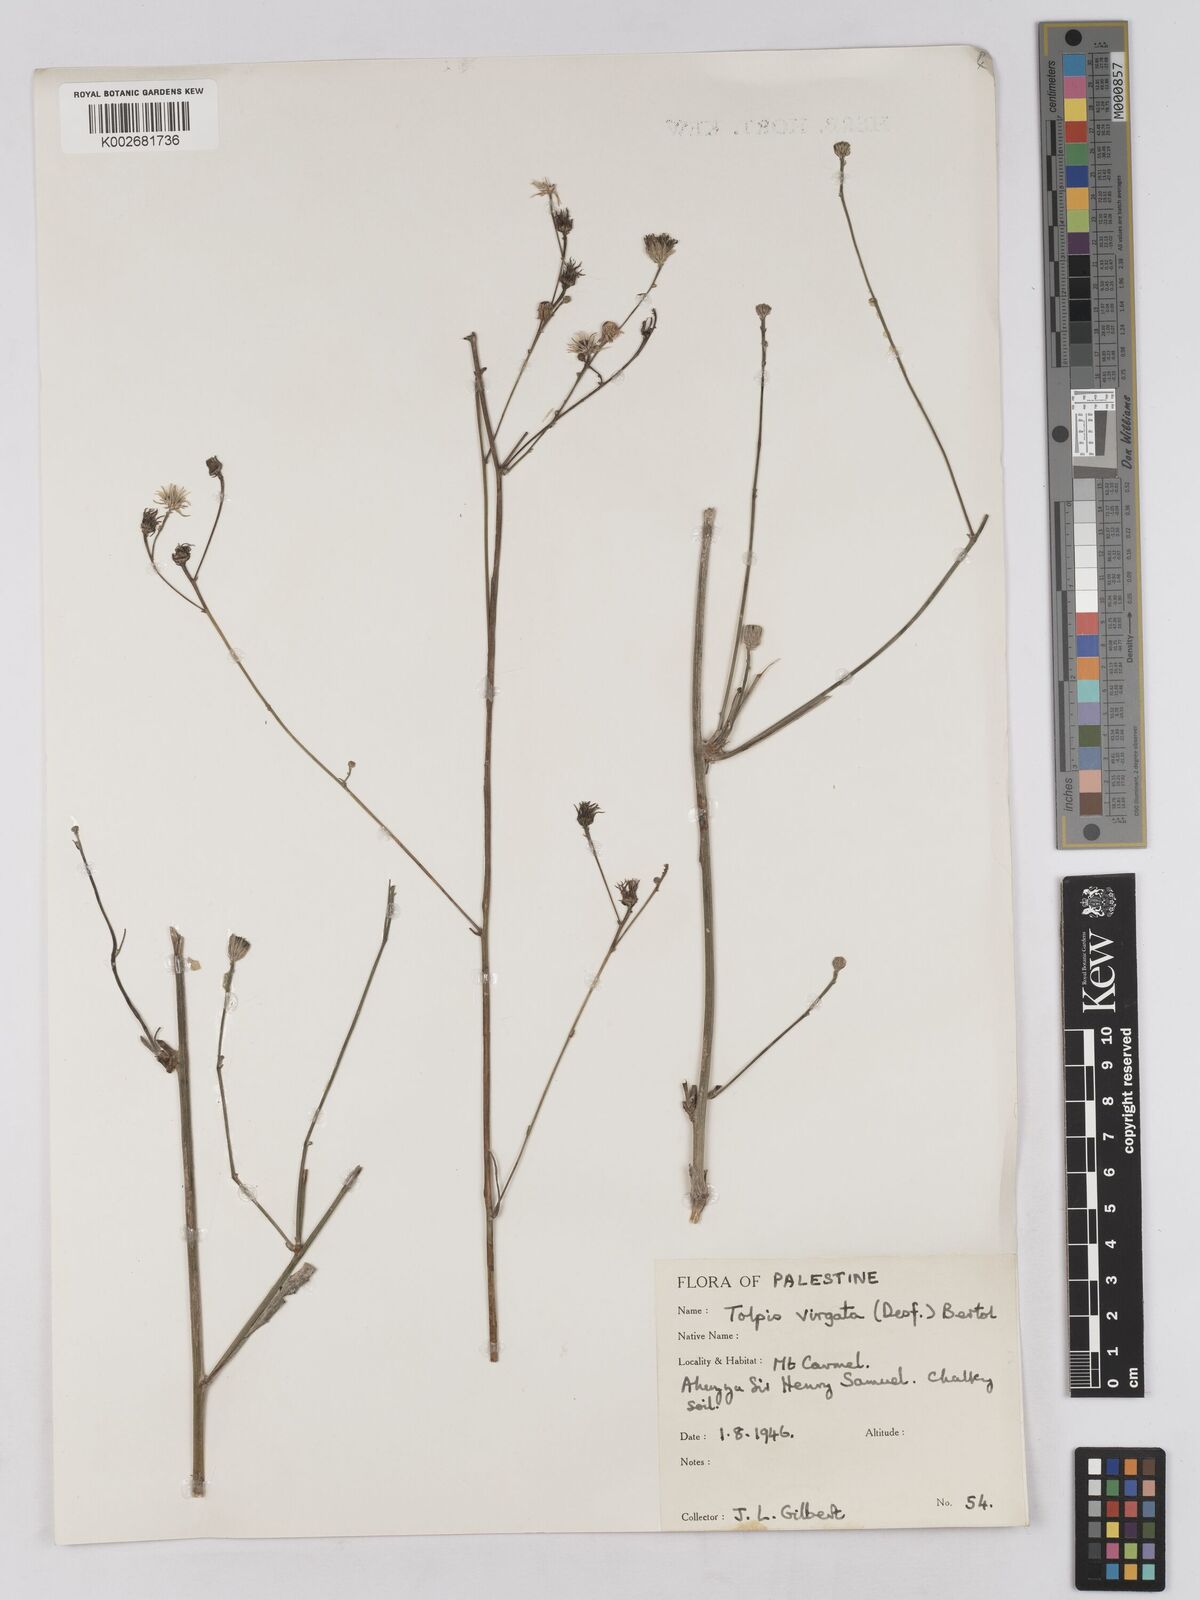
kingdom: Plantae
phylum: Tracheophyta
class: Magnoliopsida
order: Asterales
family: Asteraceae
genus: Tolpis
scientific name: Tolpis virgata
